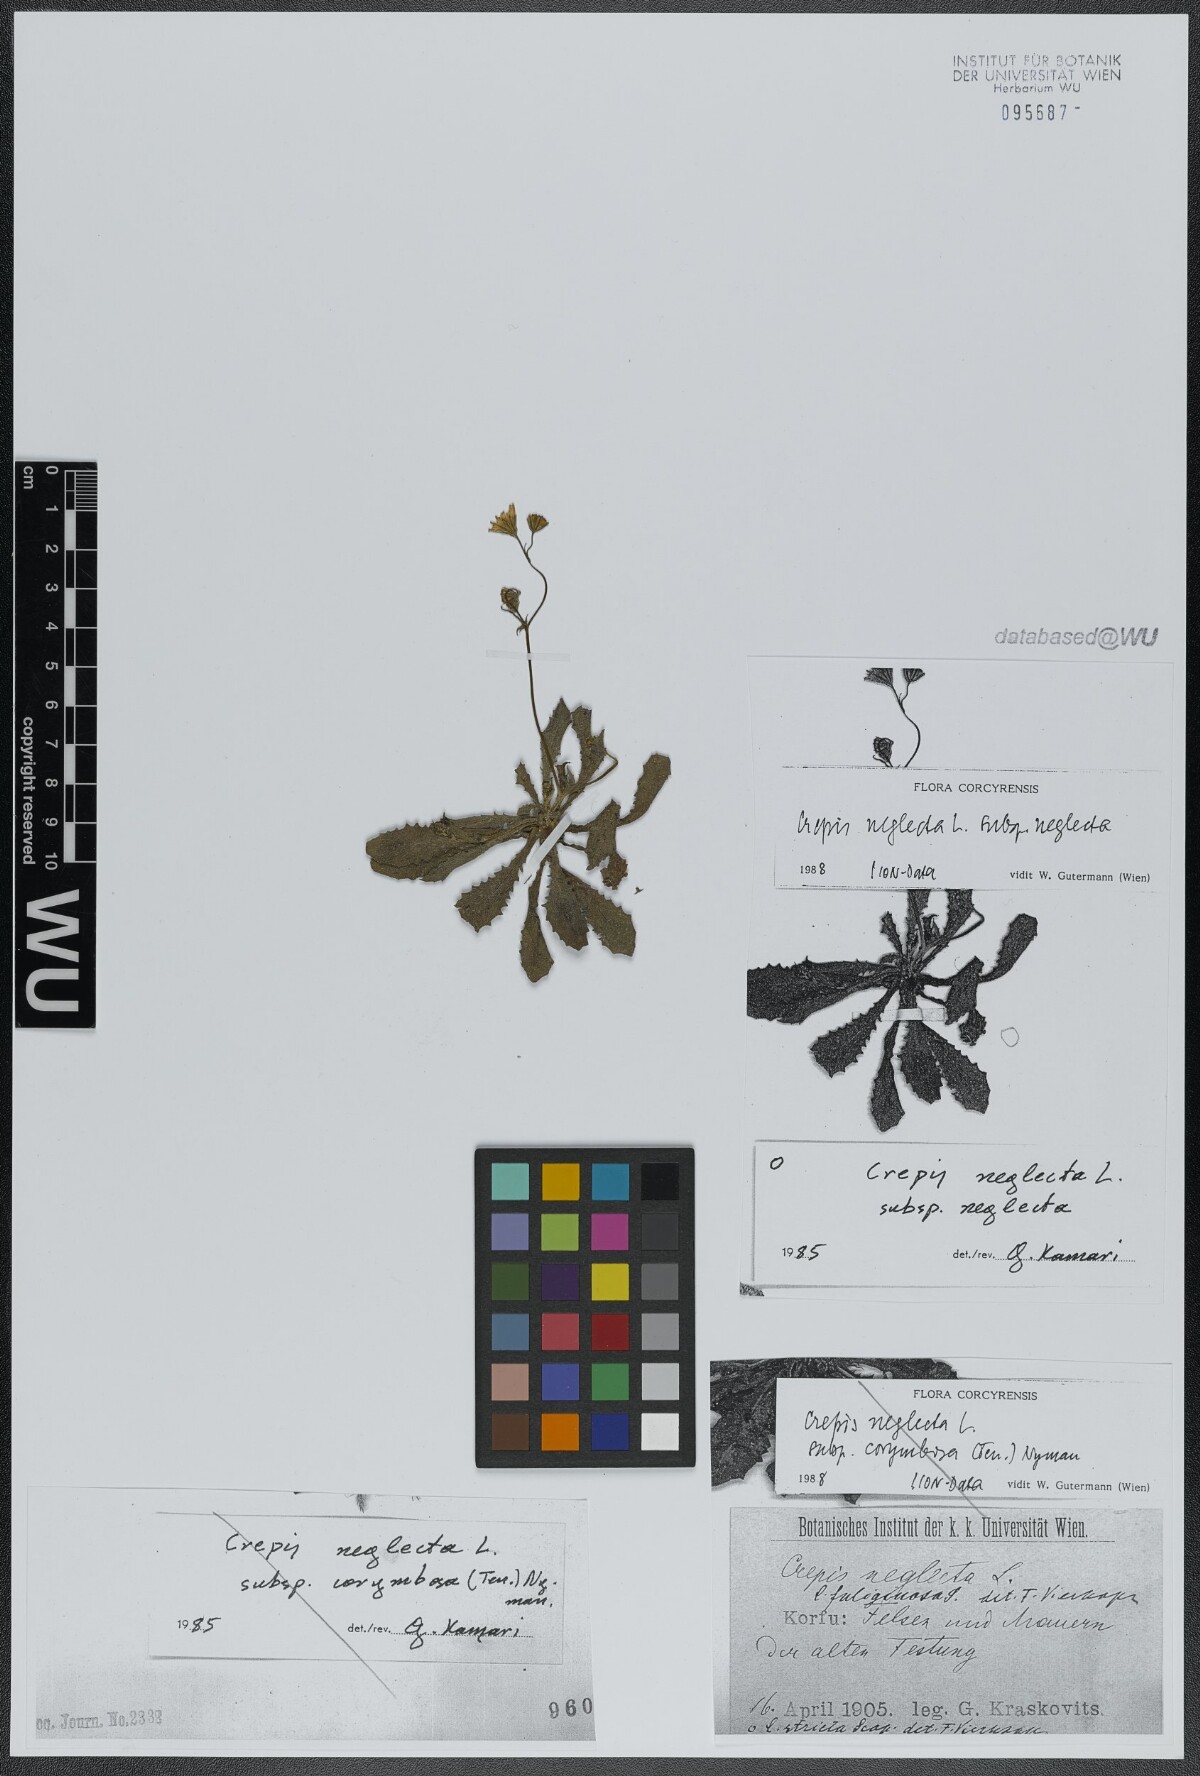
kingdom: Plantae
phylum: Tracheophyta
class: Magnoliopsida
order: Asterales
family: Asteraceae
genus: Crepis
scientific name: Crepis neglecta
